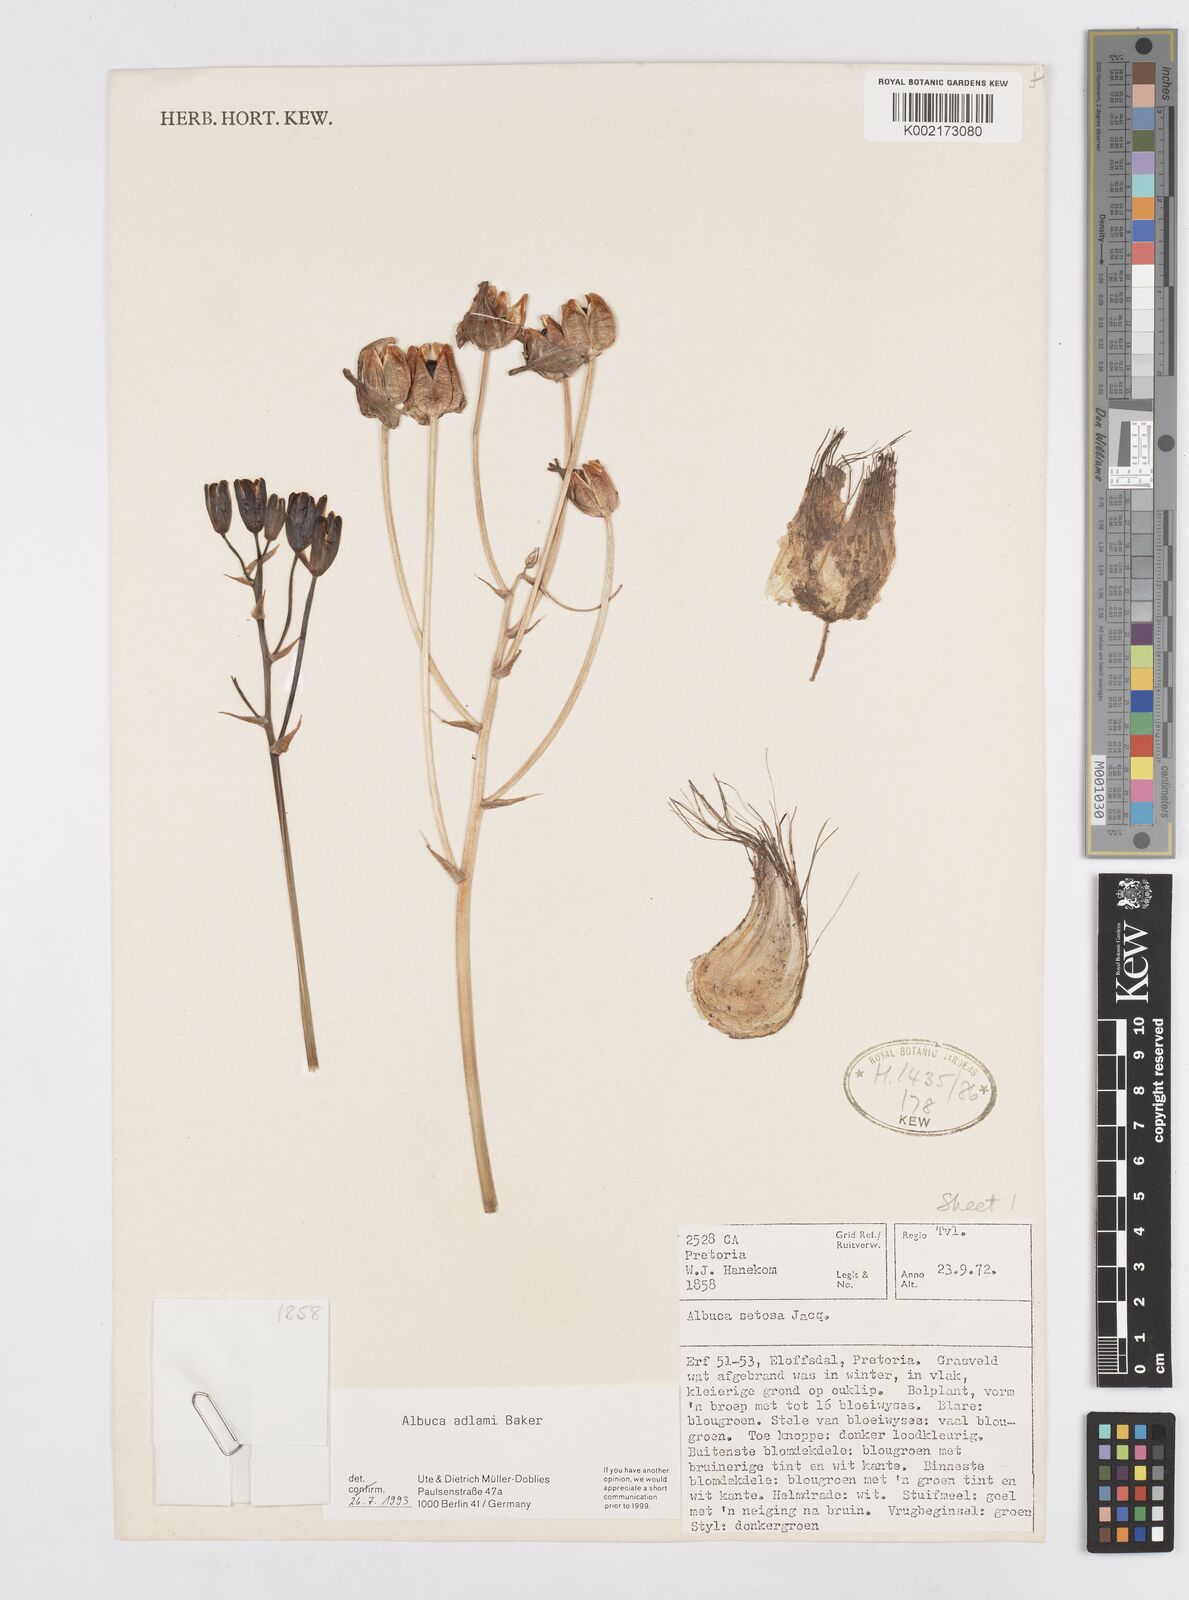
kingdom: Plantae
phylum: Tracheophyta
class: Liliopsida
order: Asparagales
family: Asparagaceae
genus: Albuca
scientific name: Albuca adlami
